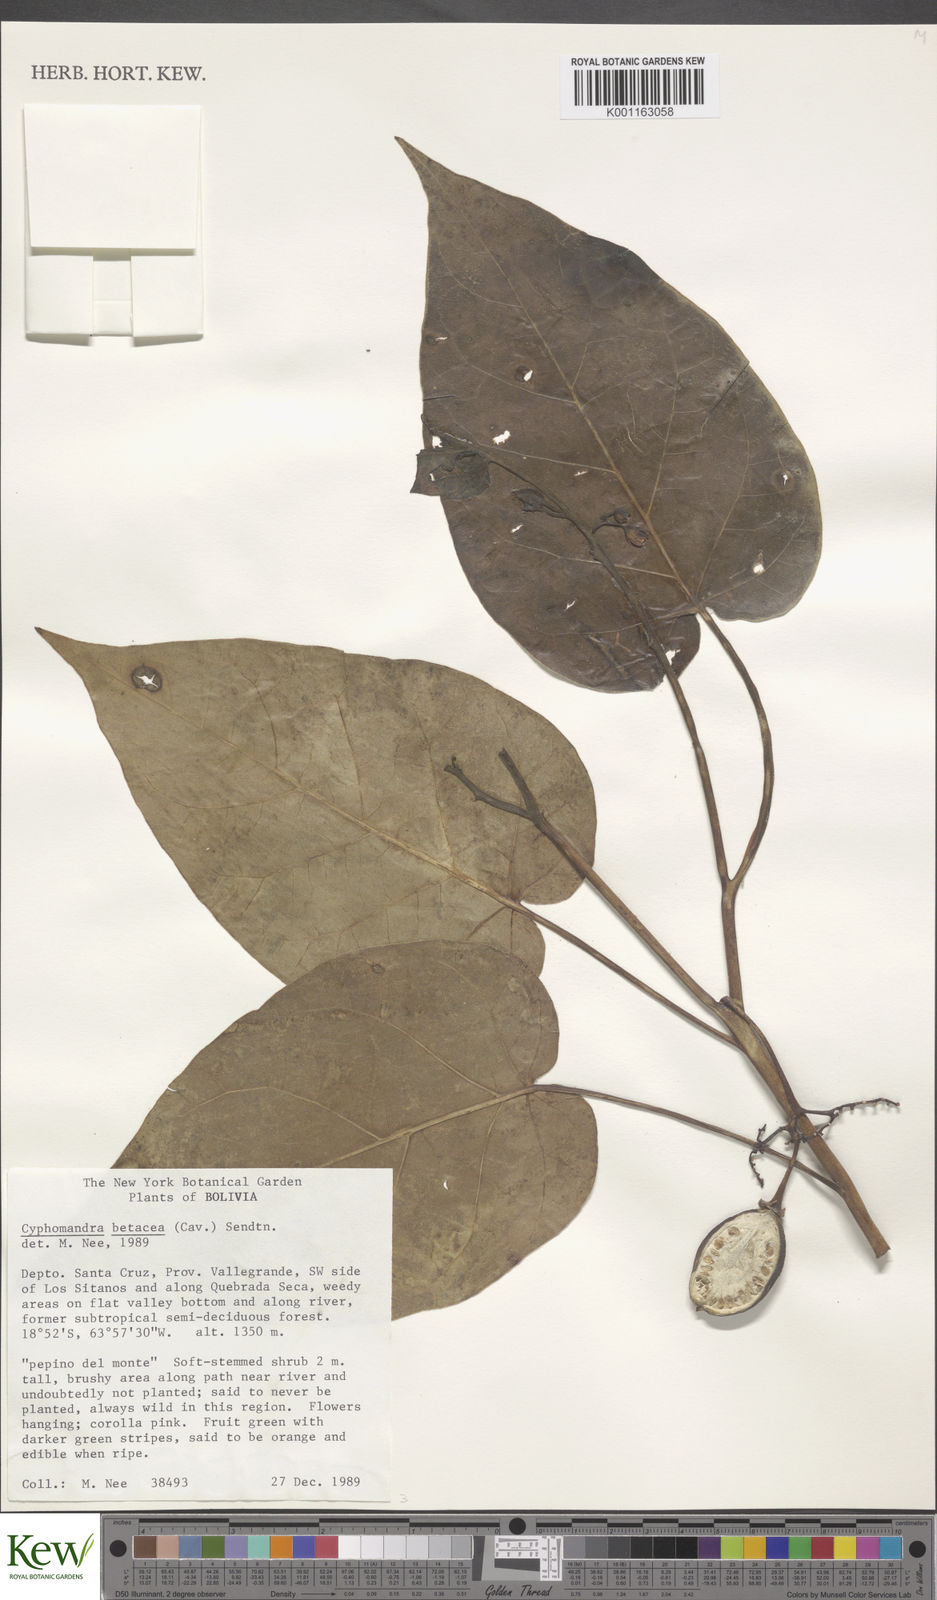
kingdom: Plantae
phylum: Tracheophyta
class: Magnoliopsida
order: Solanales
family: Solanaceae
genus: Solanum
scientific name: Solanum betaceum
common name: Tamarillo
